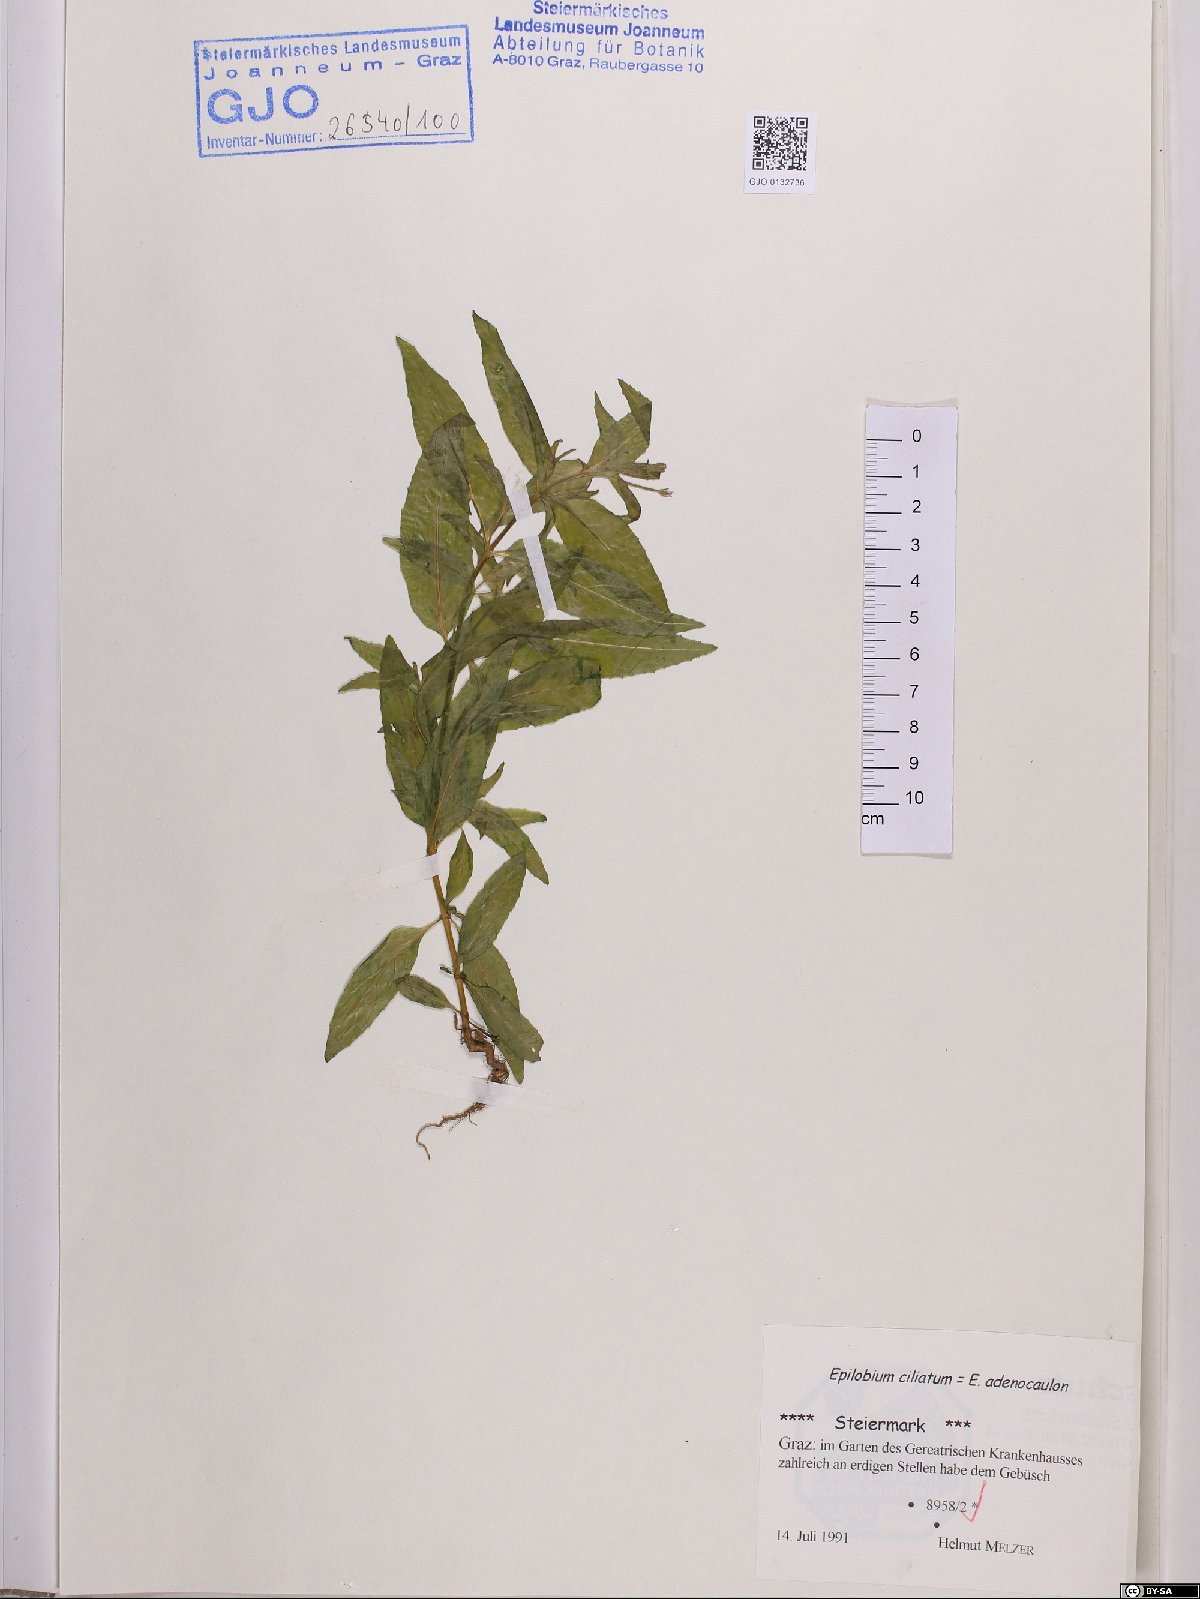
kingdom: Plantae
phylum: Tracheophyta
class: Magnoliopsida
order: Myrtales
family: Onagraceae
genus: Epilobium
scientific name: Epilobium ciliatum
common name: American willowherb
